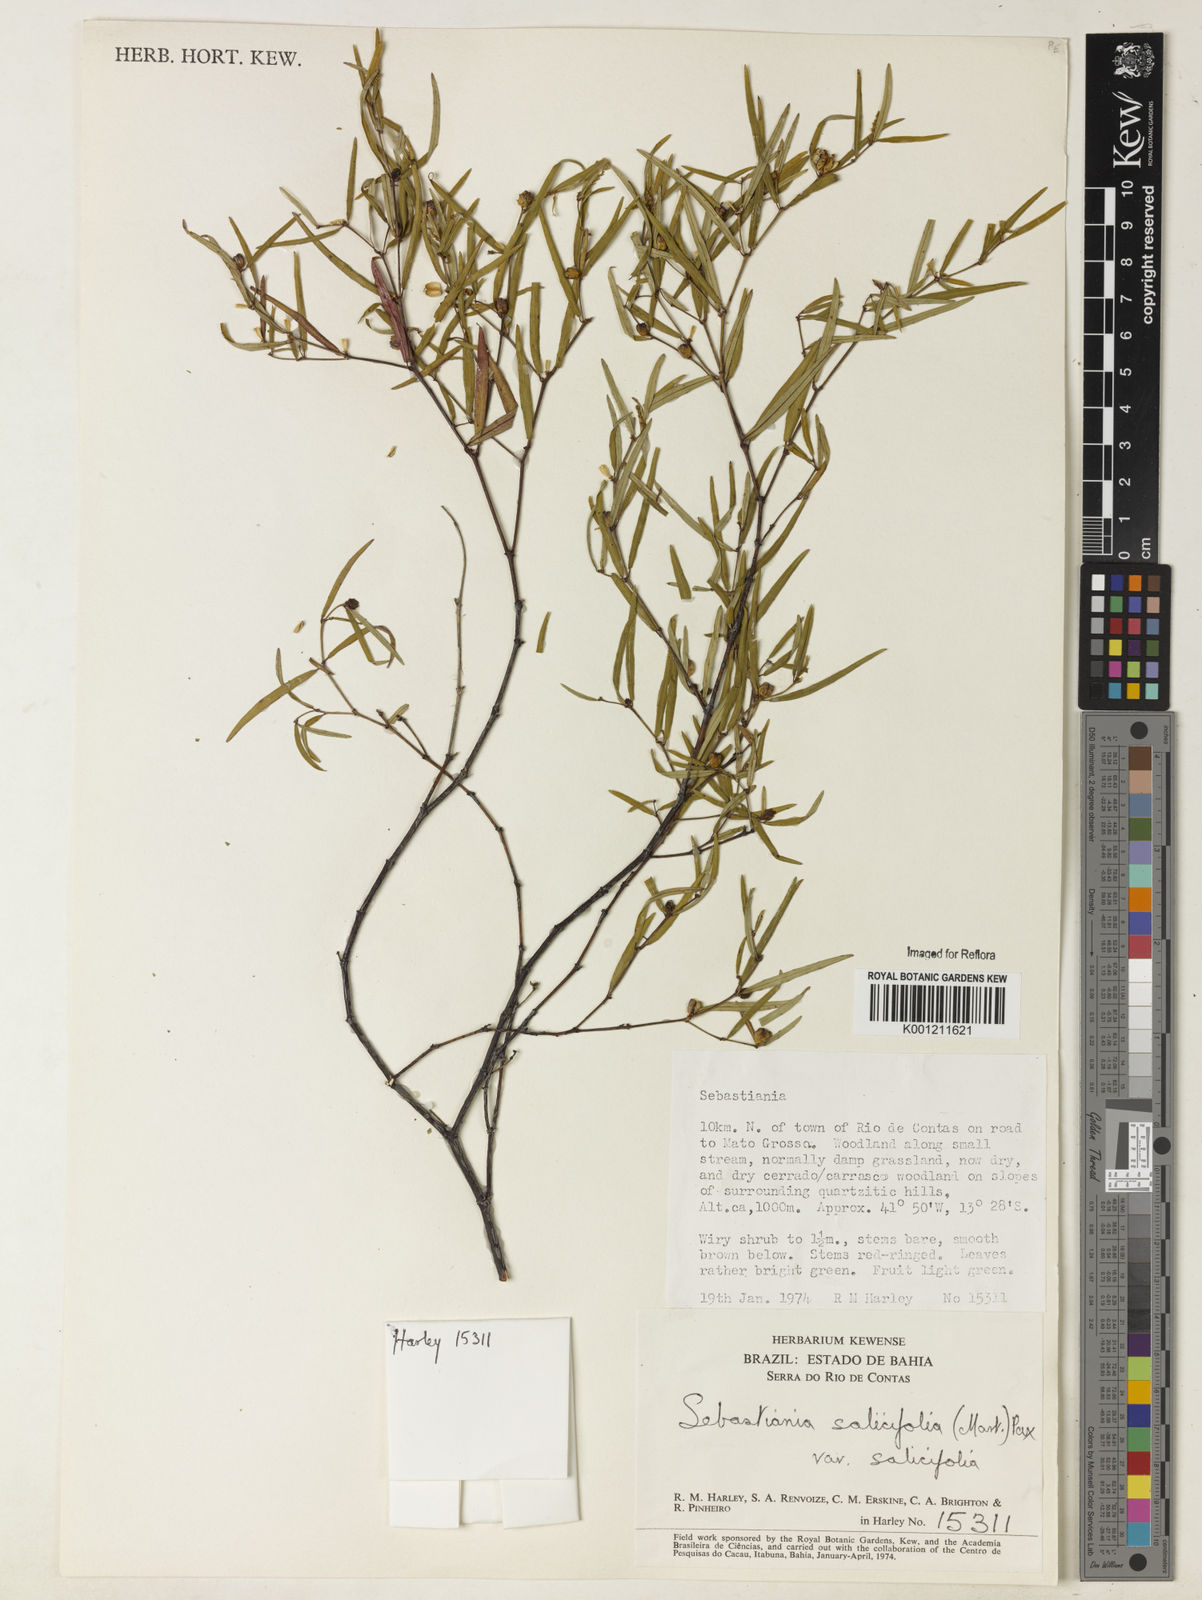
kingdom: Plantae
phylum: Tracheophyta
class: Magnoliopsida
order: Malpighiales
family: Euphorbiaceae
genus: Microstachys
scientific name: Microstachys
